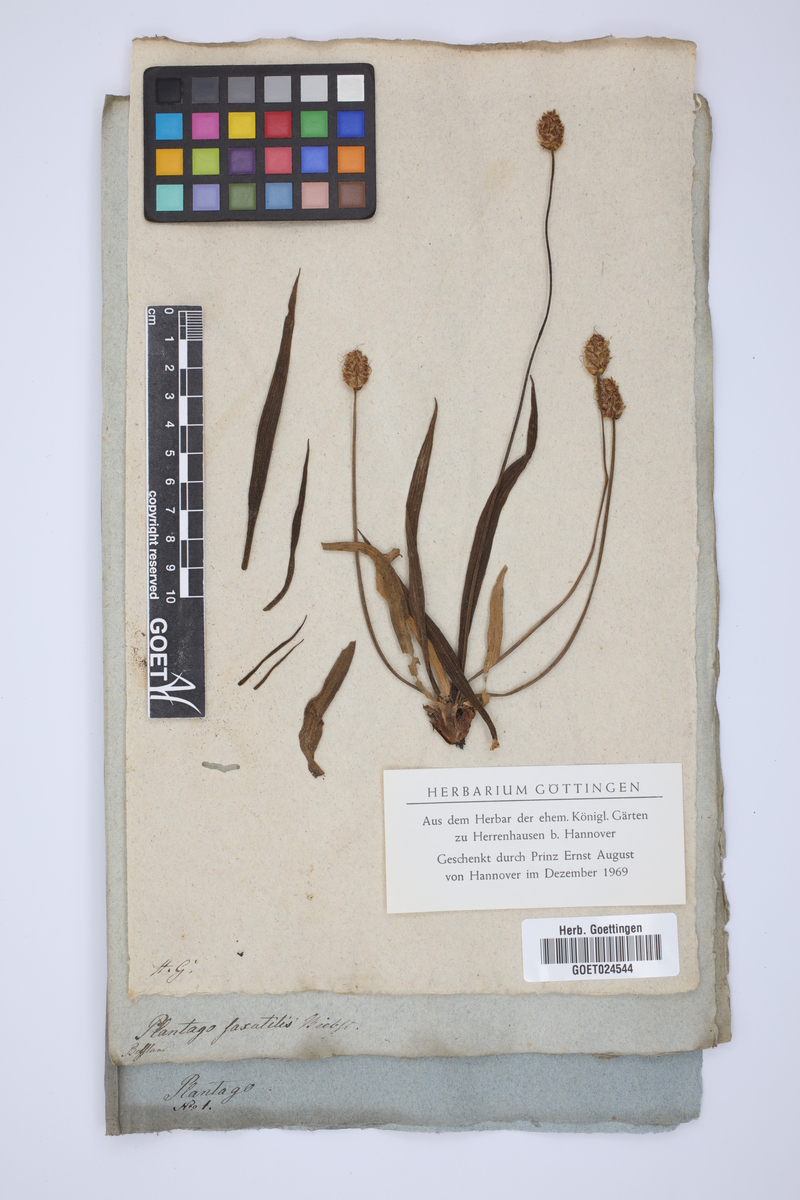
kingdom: Plantae
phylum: Tracheophyta
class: Magnoliopsida
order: Lamiales
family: Plantaginaceae
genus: Plantago
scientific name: Plantago atrata
